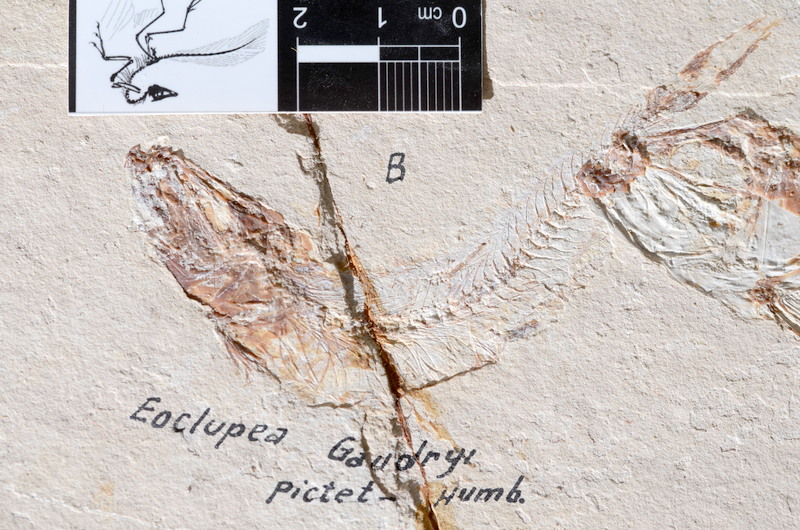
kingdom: Animalia
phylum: Chordata
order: Salmoniformes
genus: Ginsburgia
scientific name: Ginsburgia
